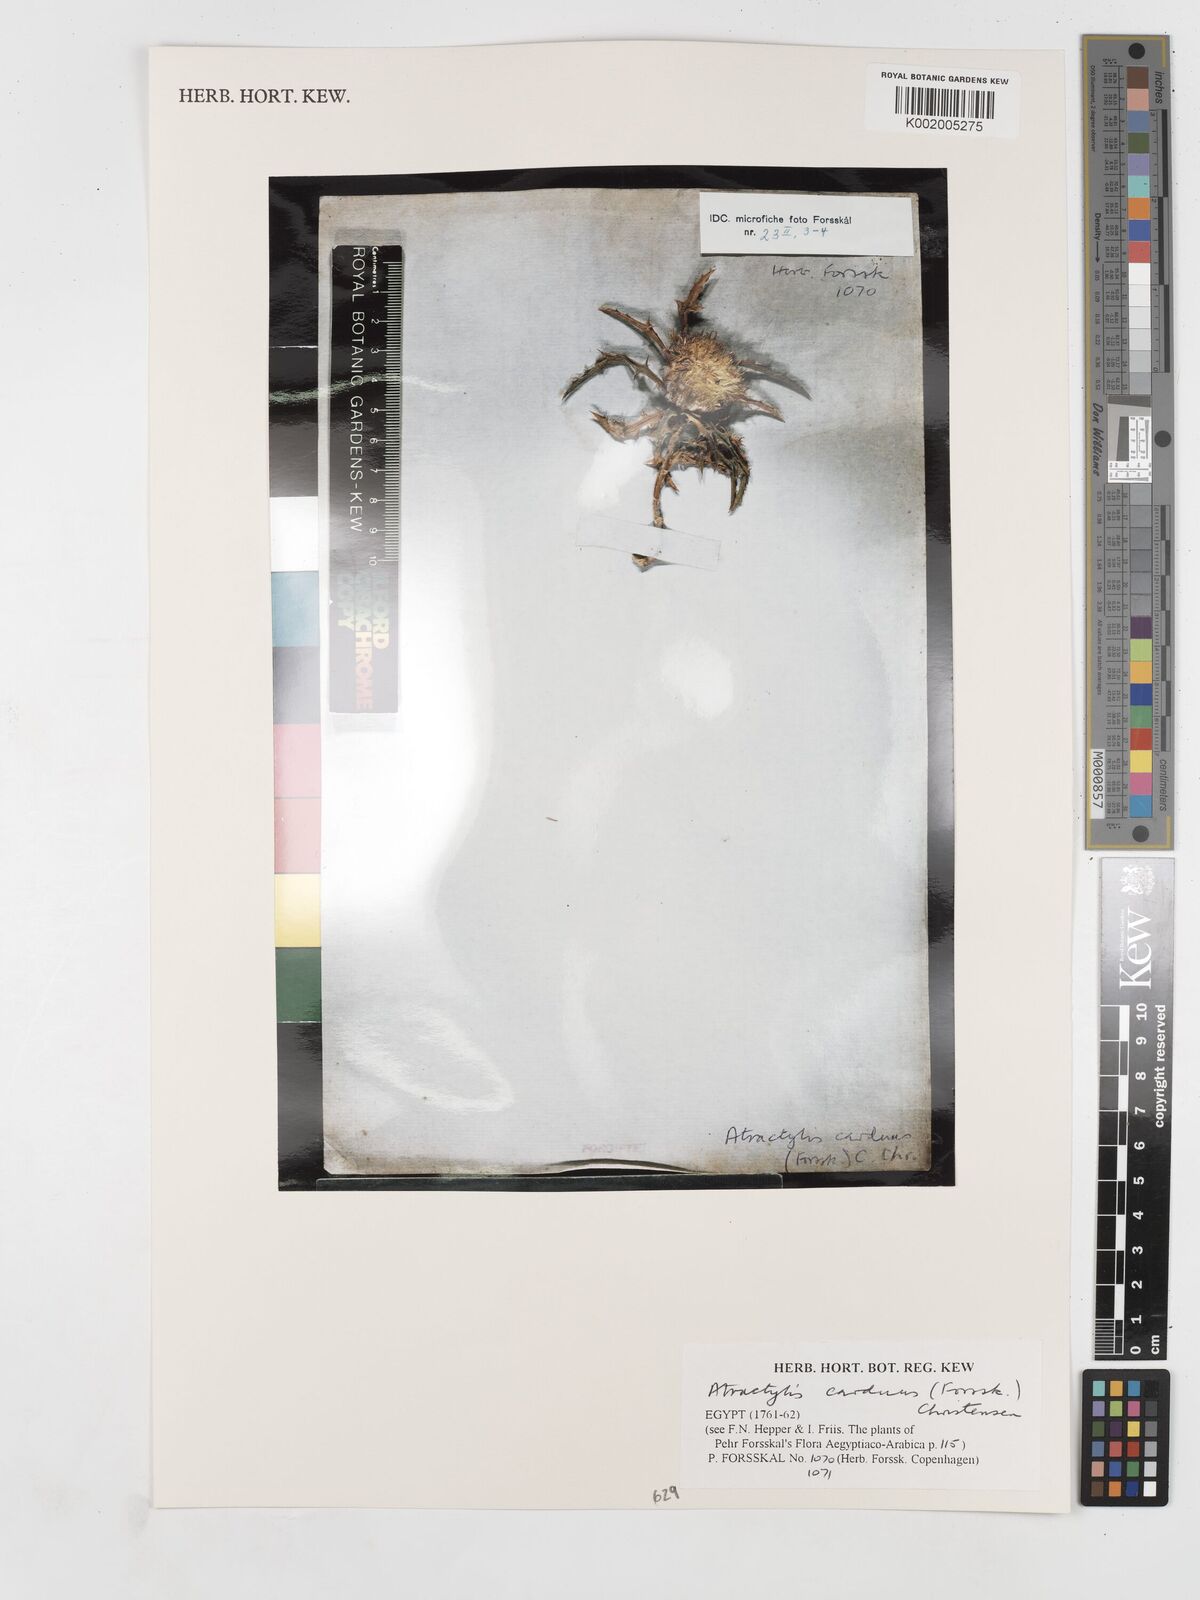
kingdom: Plantae
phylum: Tracheophyta
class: Magnoliopsida
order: Asterales
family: Asteraceae
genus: Atractylis
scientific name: Atractylis carduus
